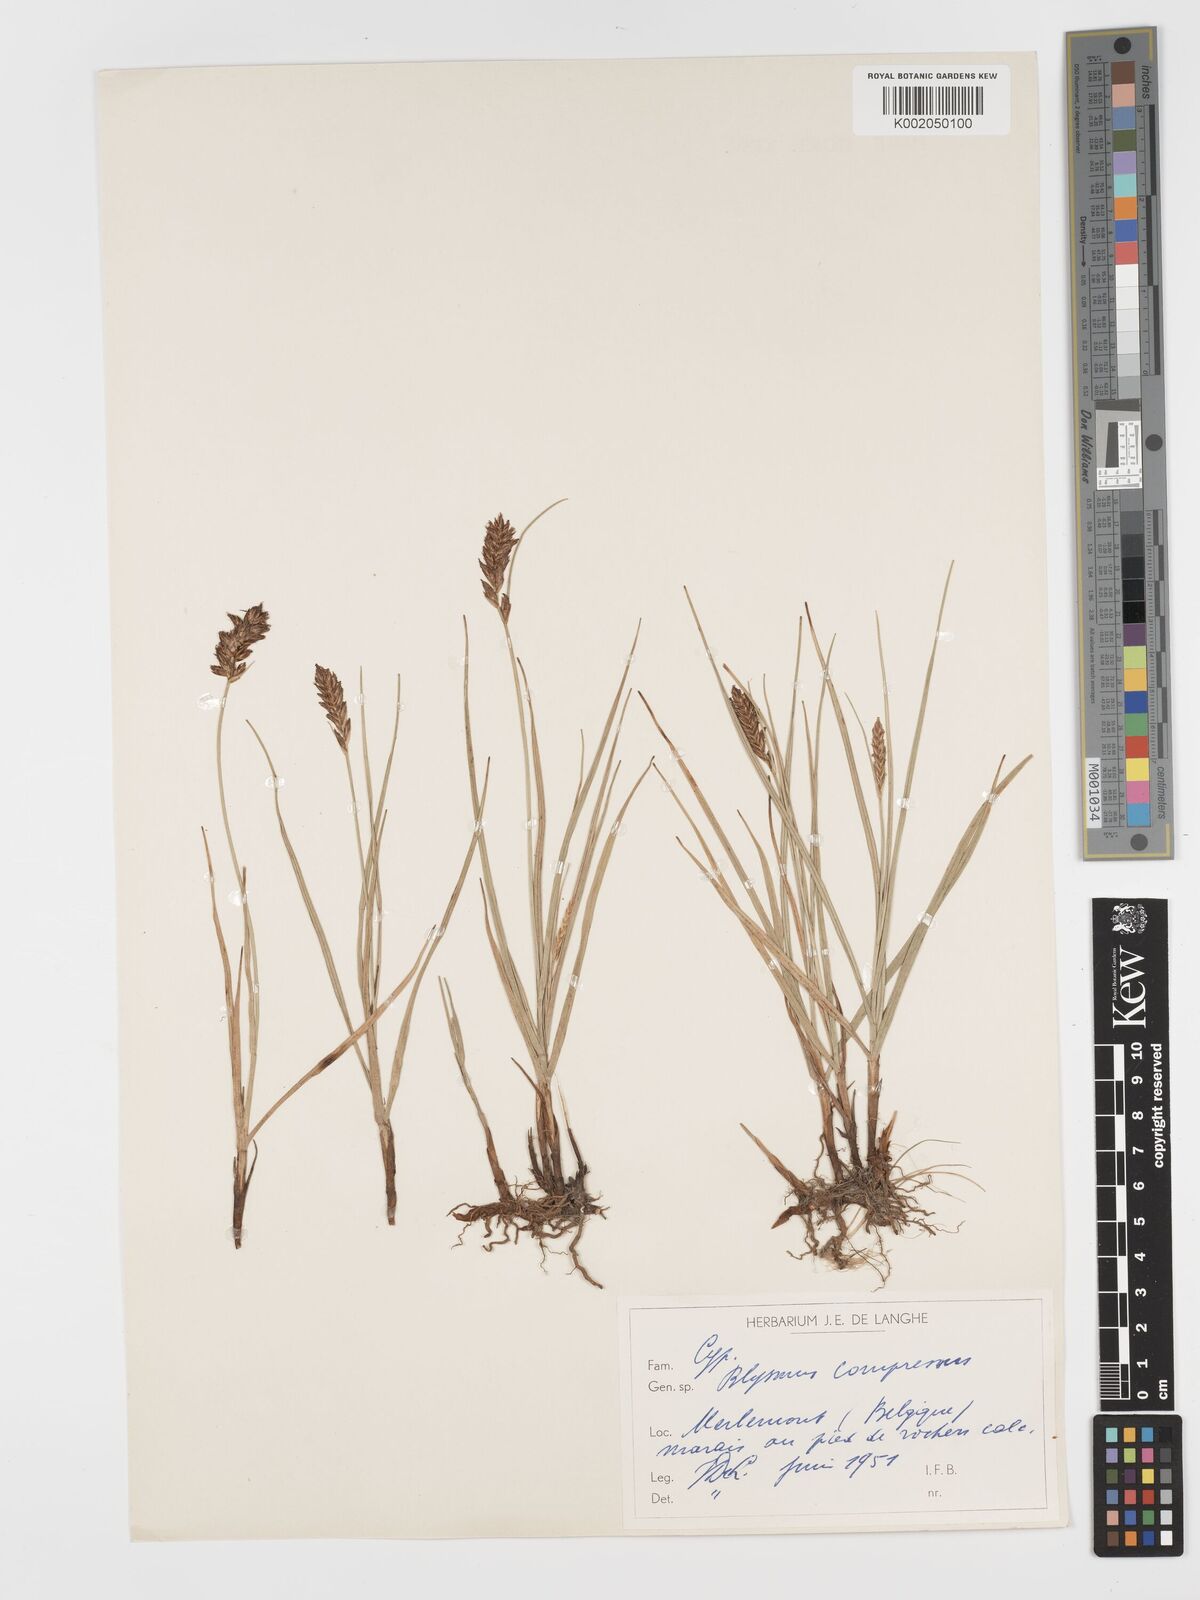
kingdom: Plantae
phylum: Tracheophyta
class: Liliopsida
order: Poales
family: Cyperaceae
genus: Blysmus
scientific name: Blysmus compressus
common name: Flat-sedge
